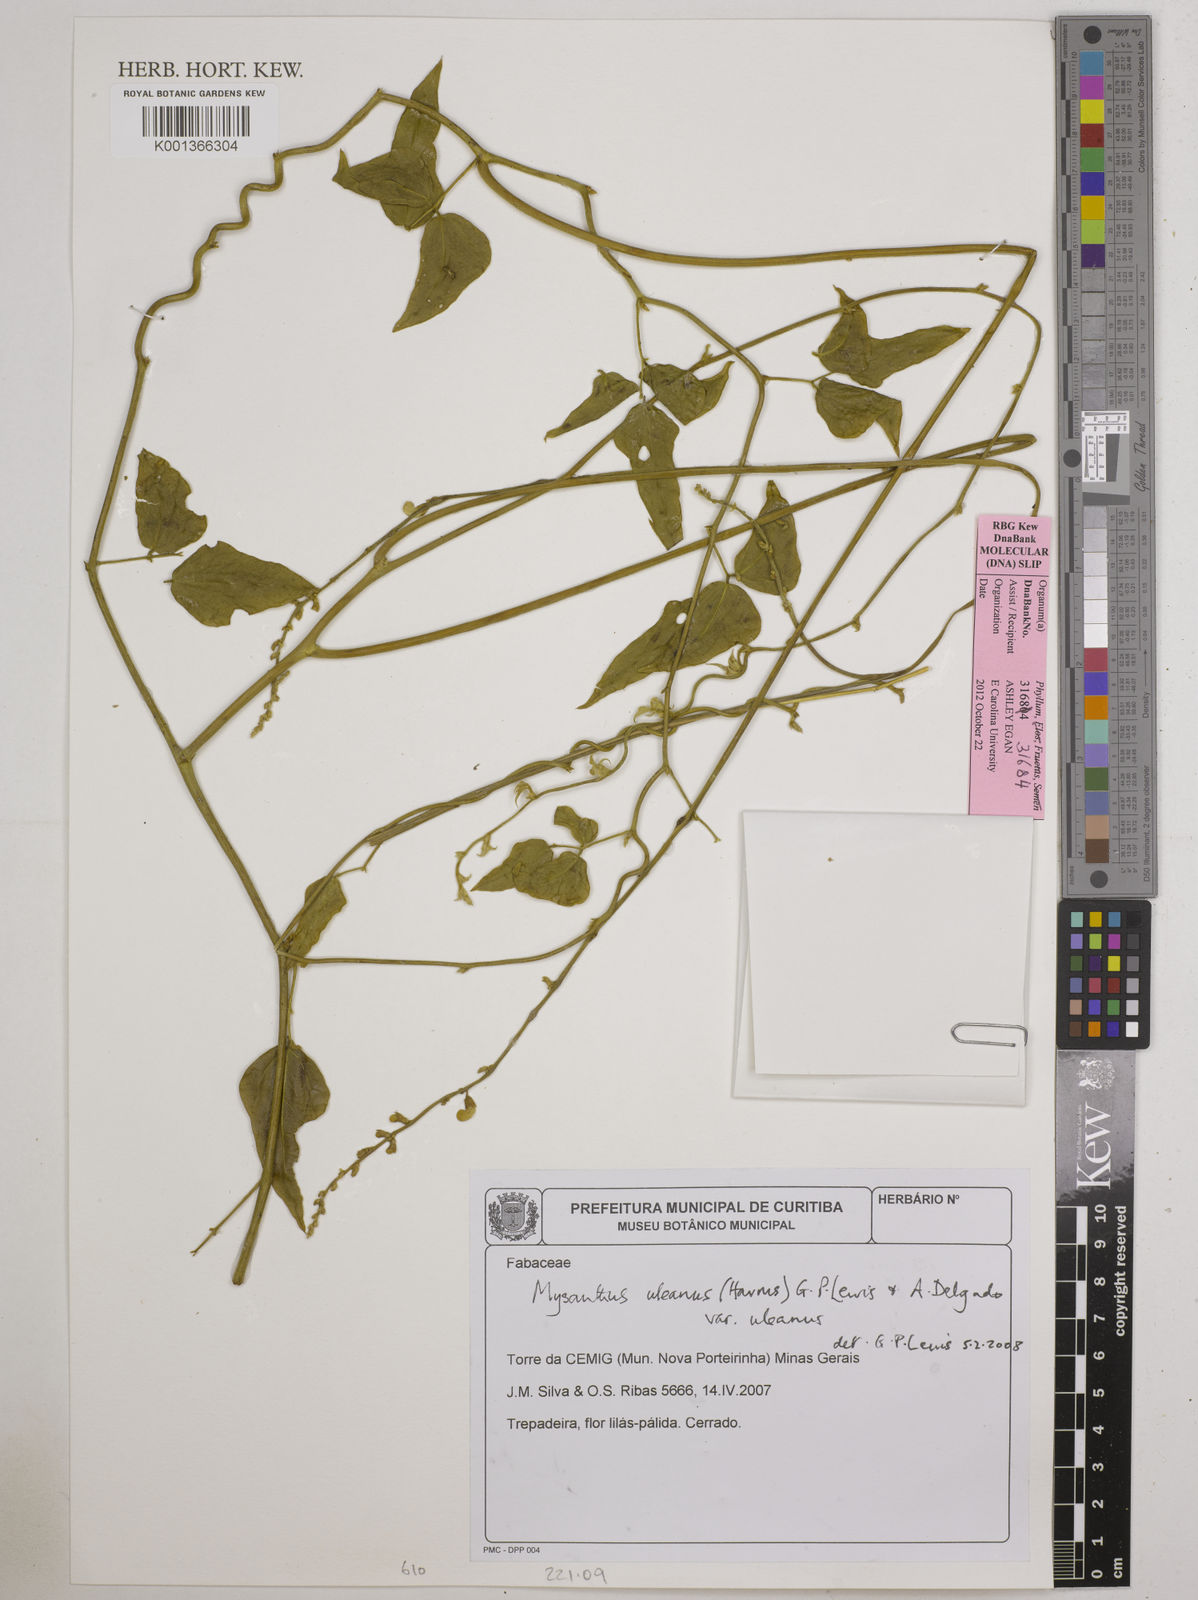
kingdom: Plantae
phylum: Tracheophyta
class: Magnoliopsida
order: Fabales
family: Fabaceae
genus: Mysanthus
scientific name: Mysanthus uleanus
